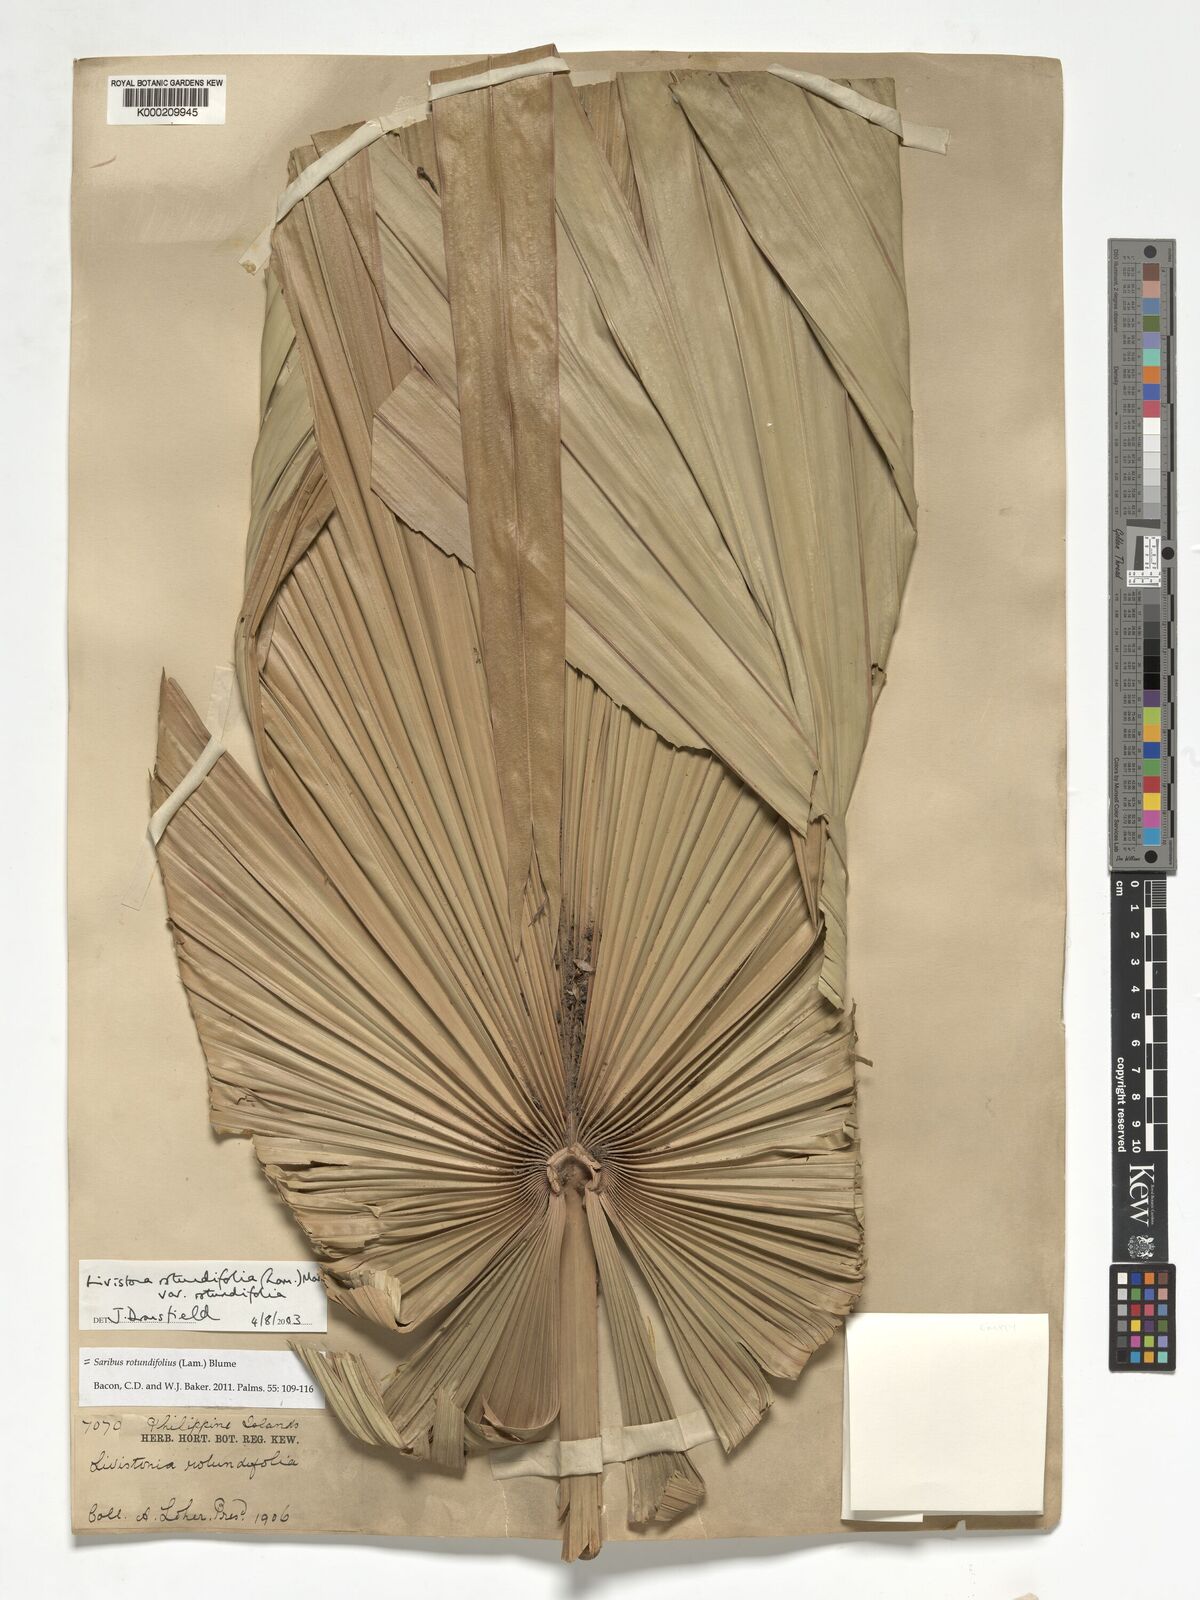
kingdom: Plantae
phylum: Tracheophyta
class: Liliopsida
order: Arecales
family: Arecaceae
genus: Saribus
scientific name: Saribus rotundifolius
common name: Palm
